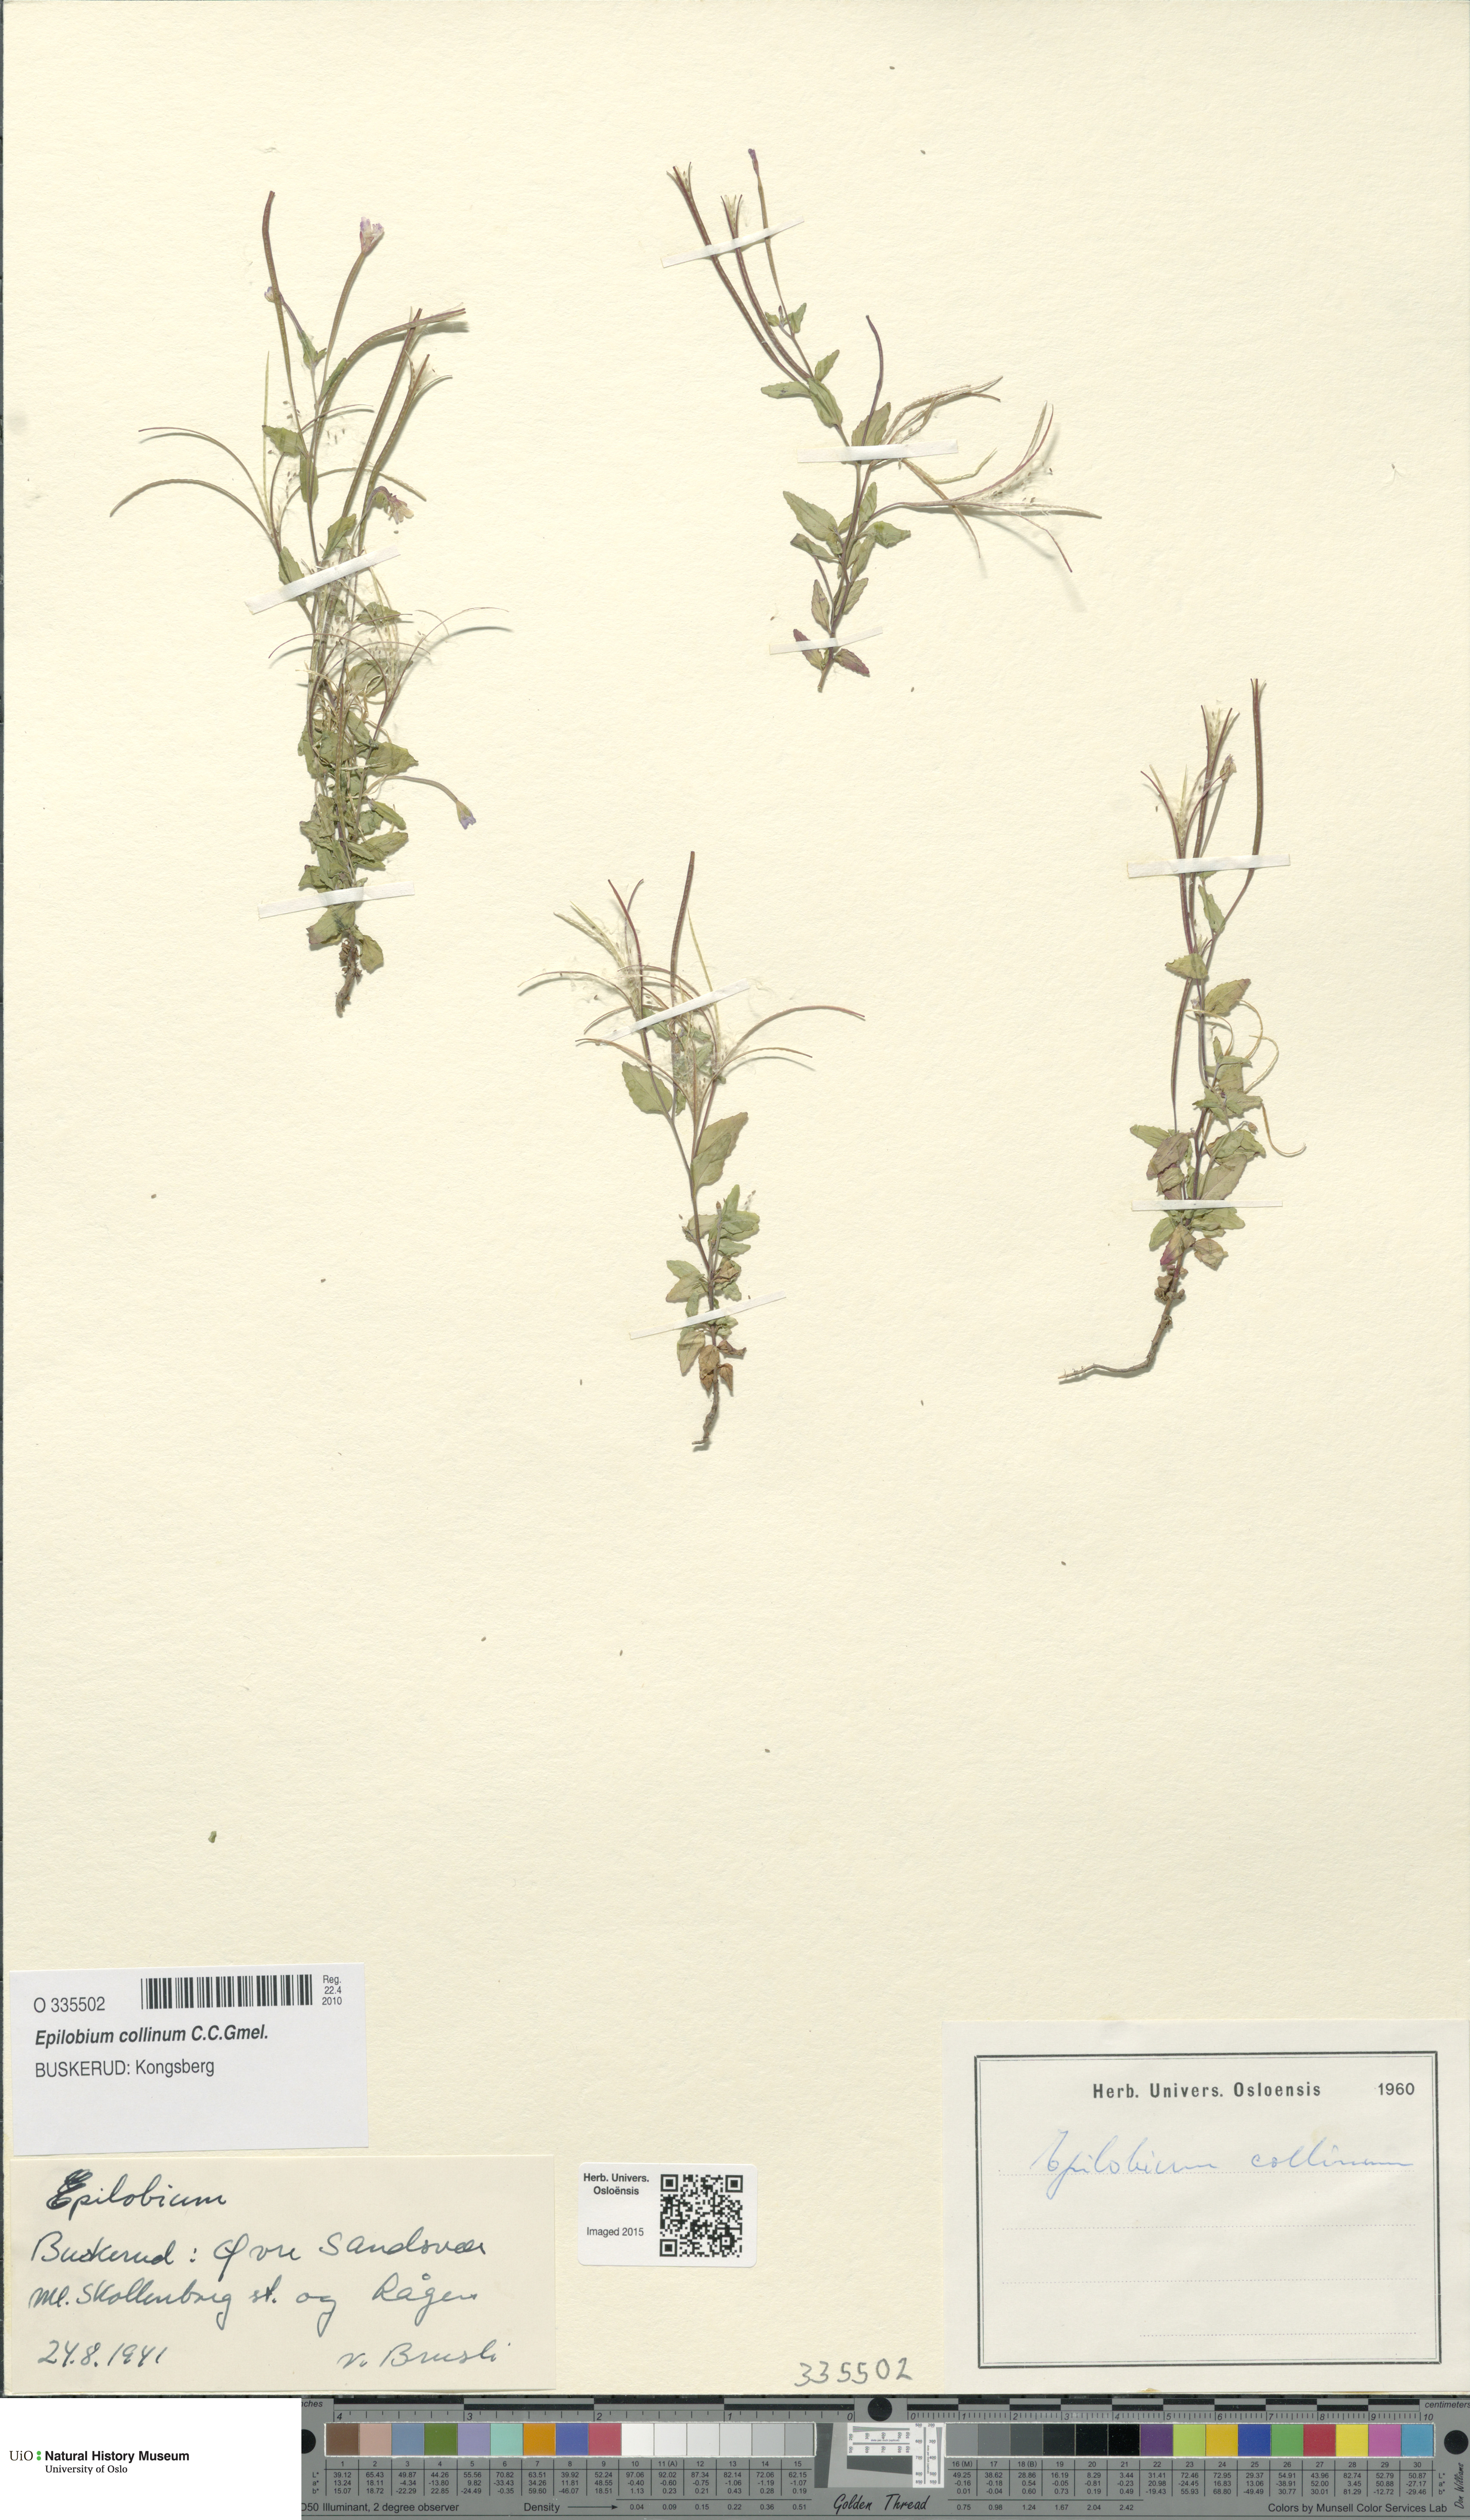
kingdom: Plantae
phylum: Tracheophyta
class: Magnoliopsida
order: Myrtales
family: Onagraceae
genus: Epilobium
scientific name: Epilobium collinum
